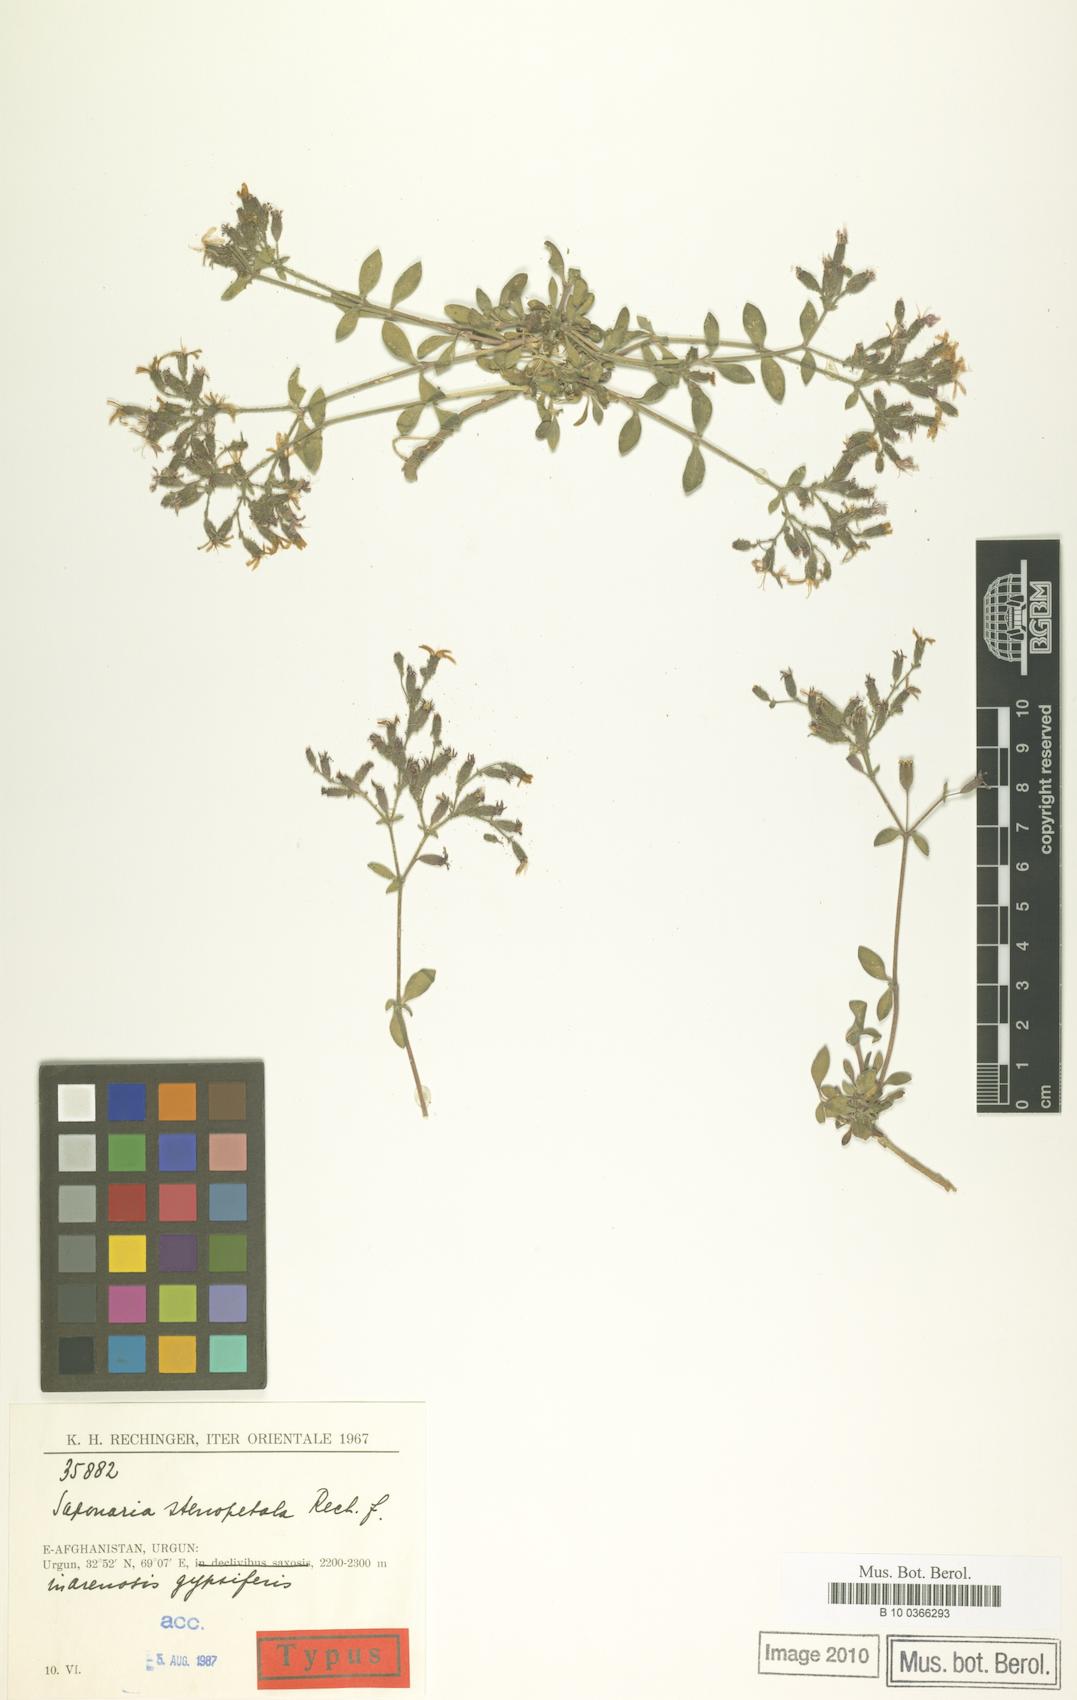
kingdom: Plantae
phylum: Tracheophyta
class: Magnoliopsida
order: Caryophyllales
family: Caryophyllaceae
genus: Saponaria
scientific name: Saponaria stenopetala
